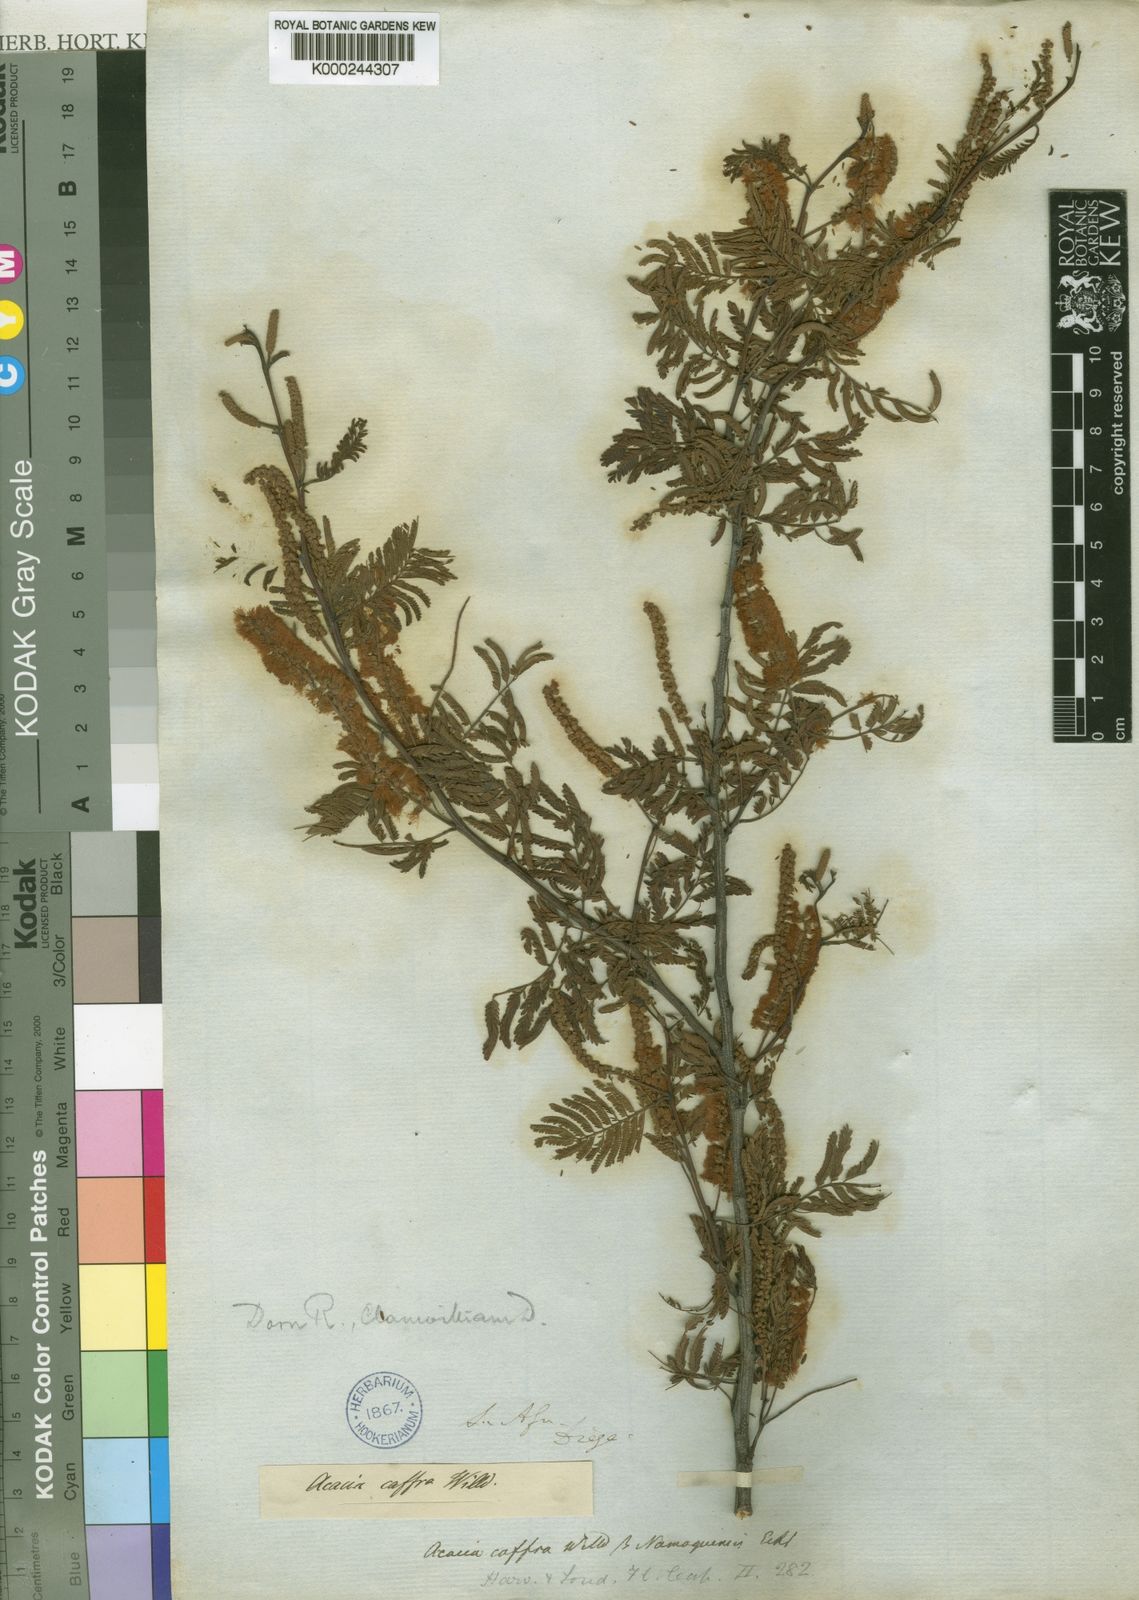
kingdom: Plantae
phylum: Tracheophyta
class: Magnoliopsida
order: Fabales
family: Fabaceae
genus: Senegalia
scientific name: Senegalia caffra
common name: Cat thorn
